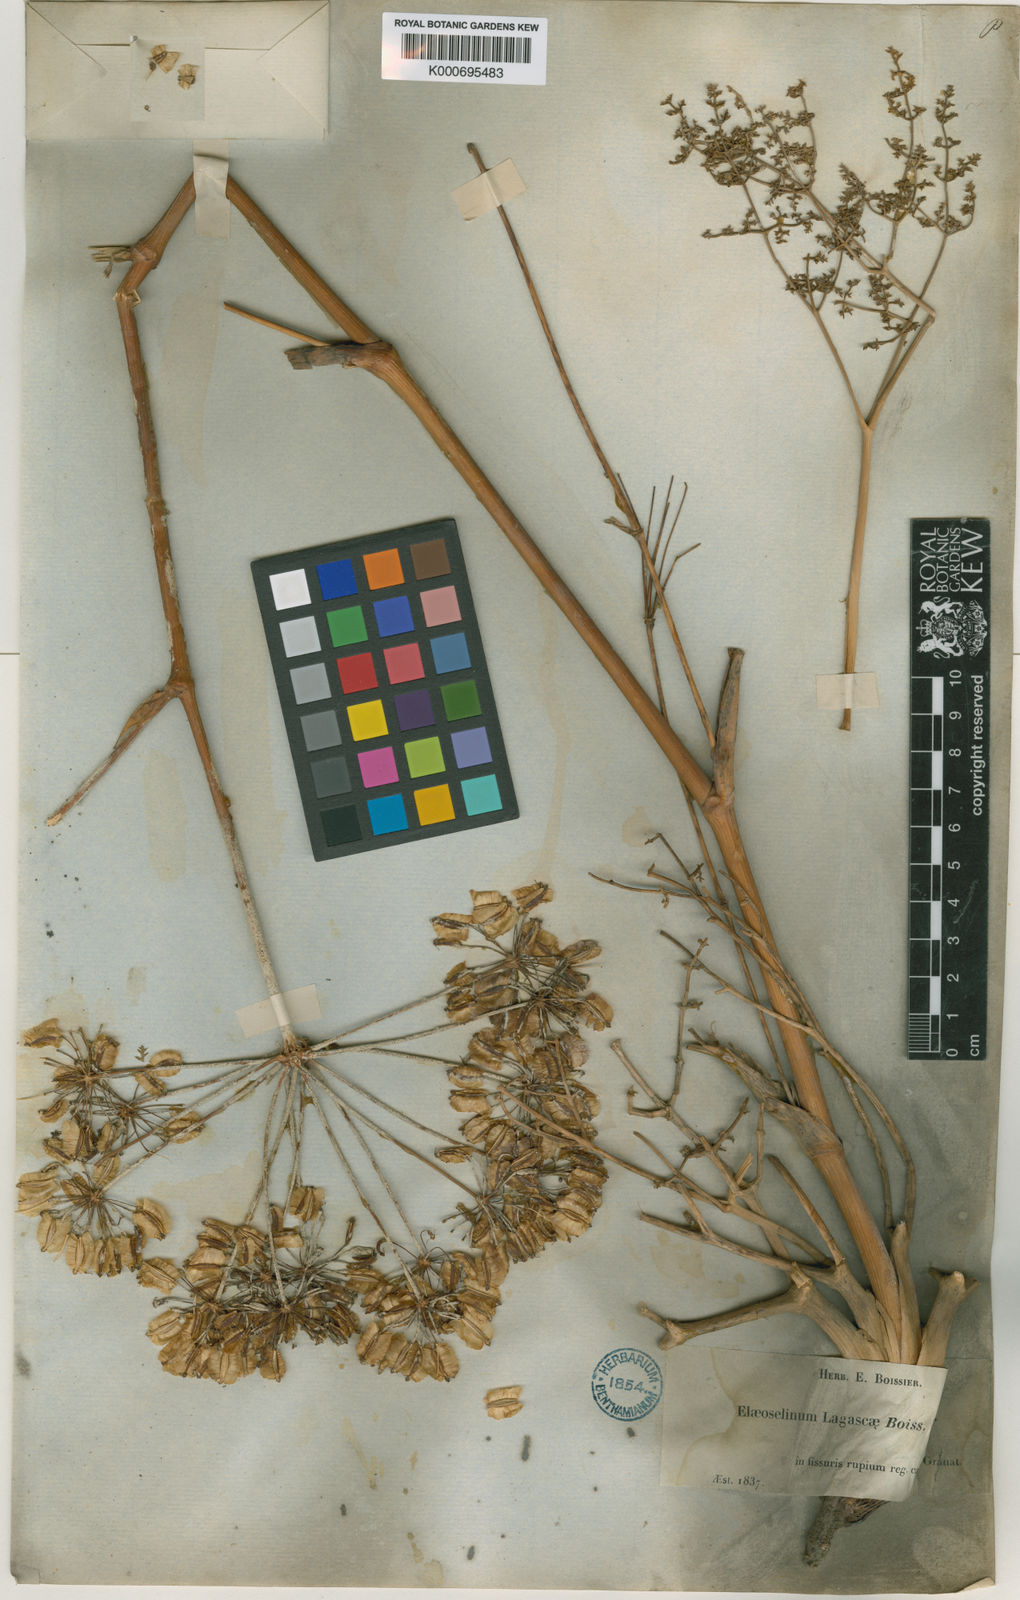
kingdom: Plantae
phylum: Tracheophyta
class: Magnoliopsida
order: Apiales
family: Apiaceae
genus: Thapsia
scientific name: Thapsia tenuifolia
